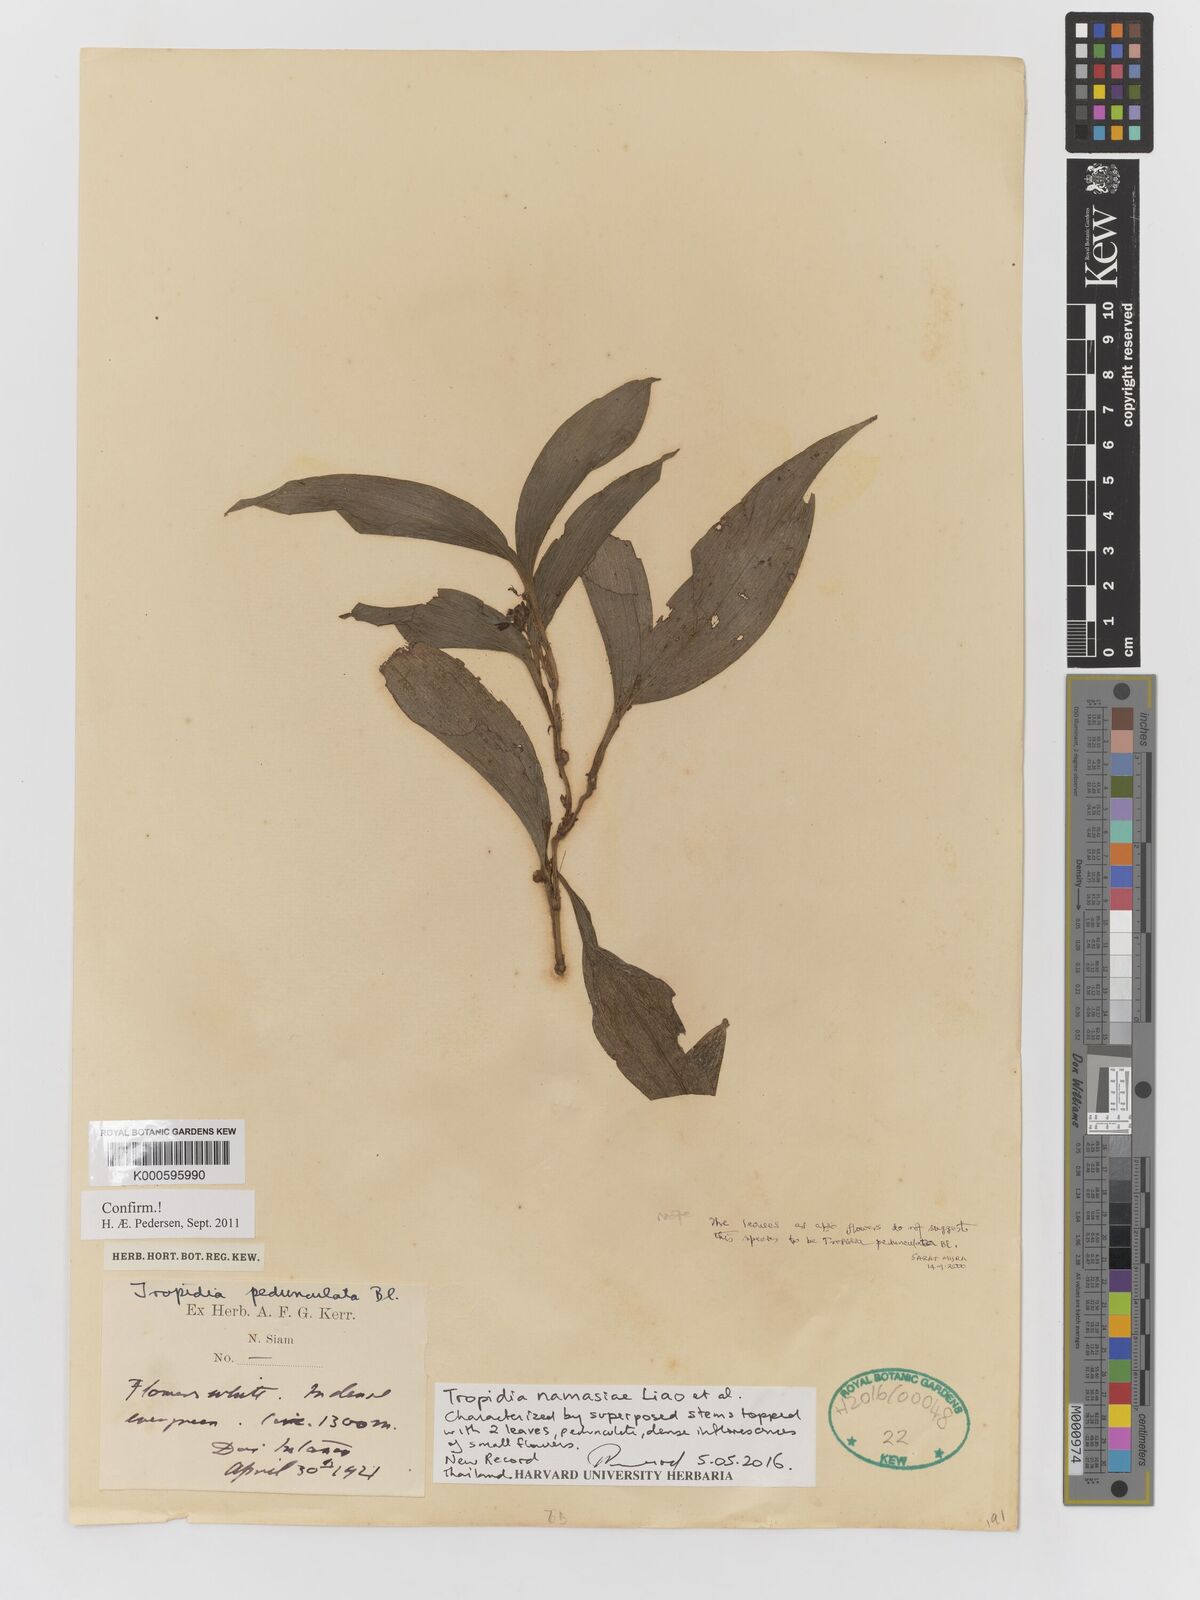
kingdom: Plantae
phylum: Tracheophyta
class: Liliopsida
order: Asparagales
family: Orchidaceae
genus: Tropidia
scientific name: Tropidia pedunculata
